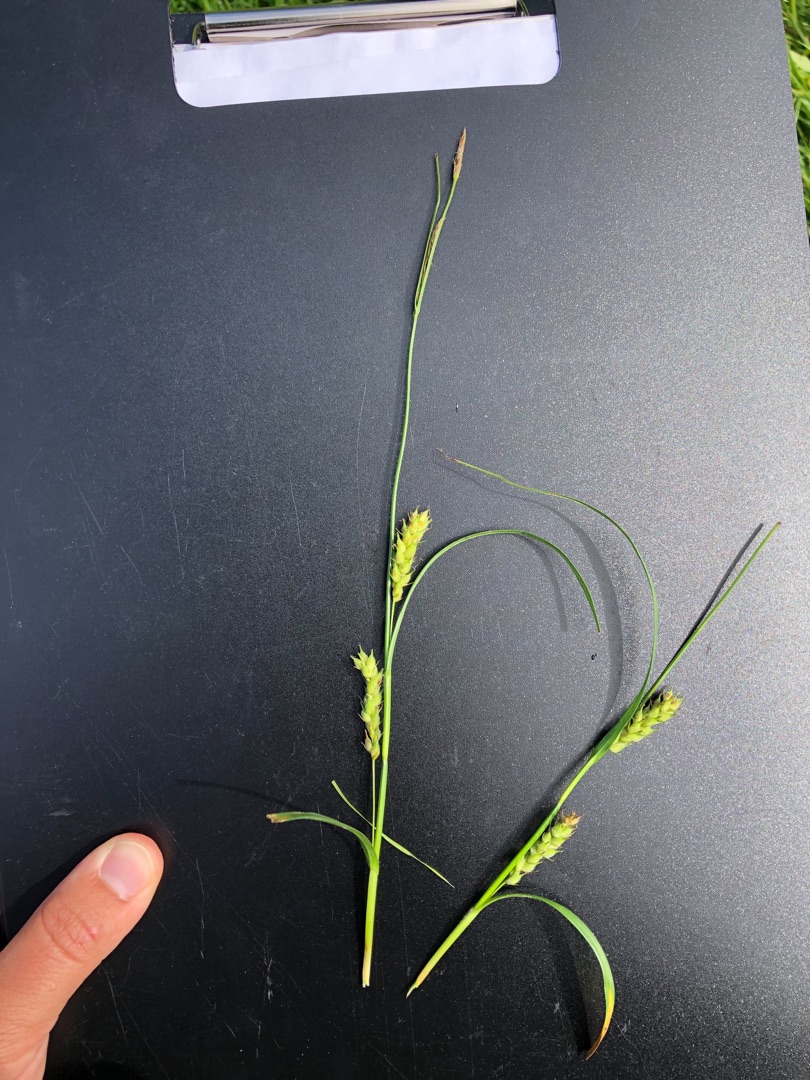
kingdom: Plantae
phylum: Tracheophyta
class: Liliopsida
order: Poales
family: Cyperaceae
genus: Carex
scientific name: Carex hirta
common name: Håret star
